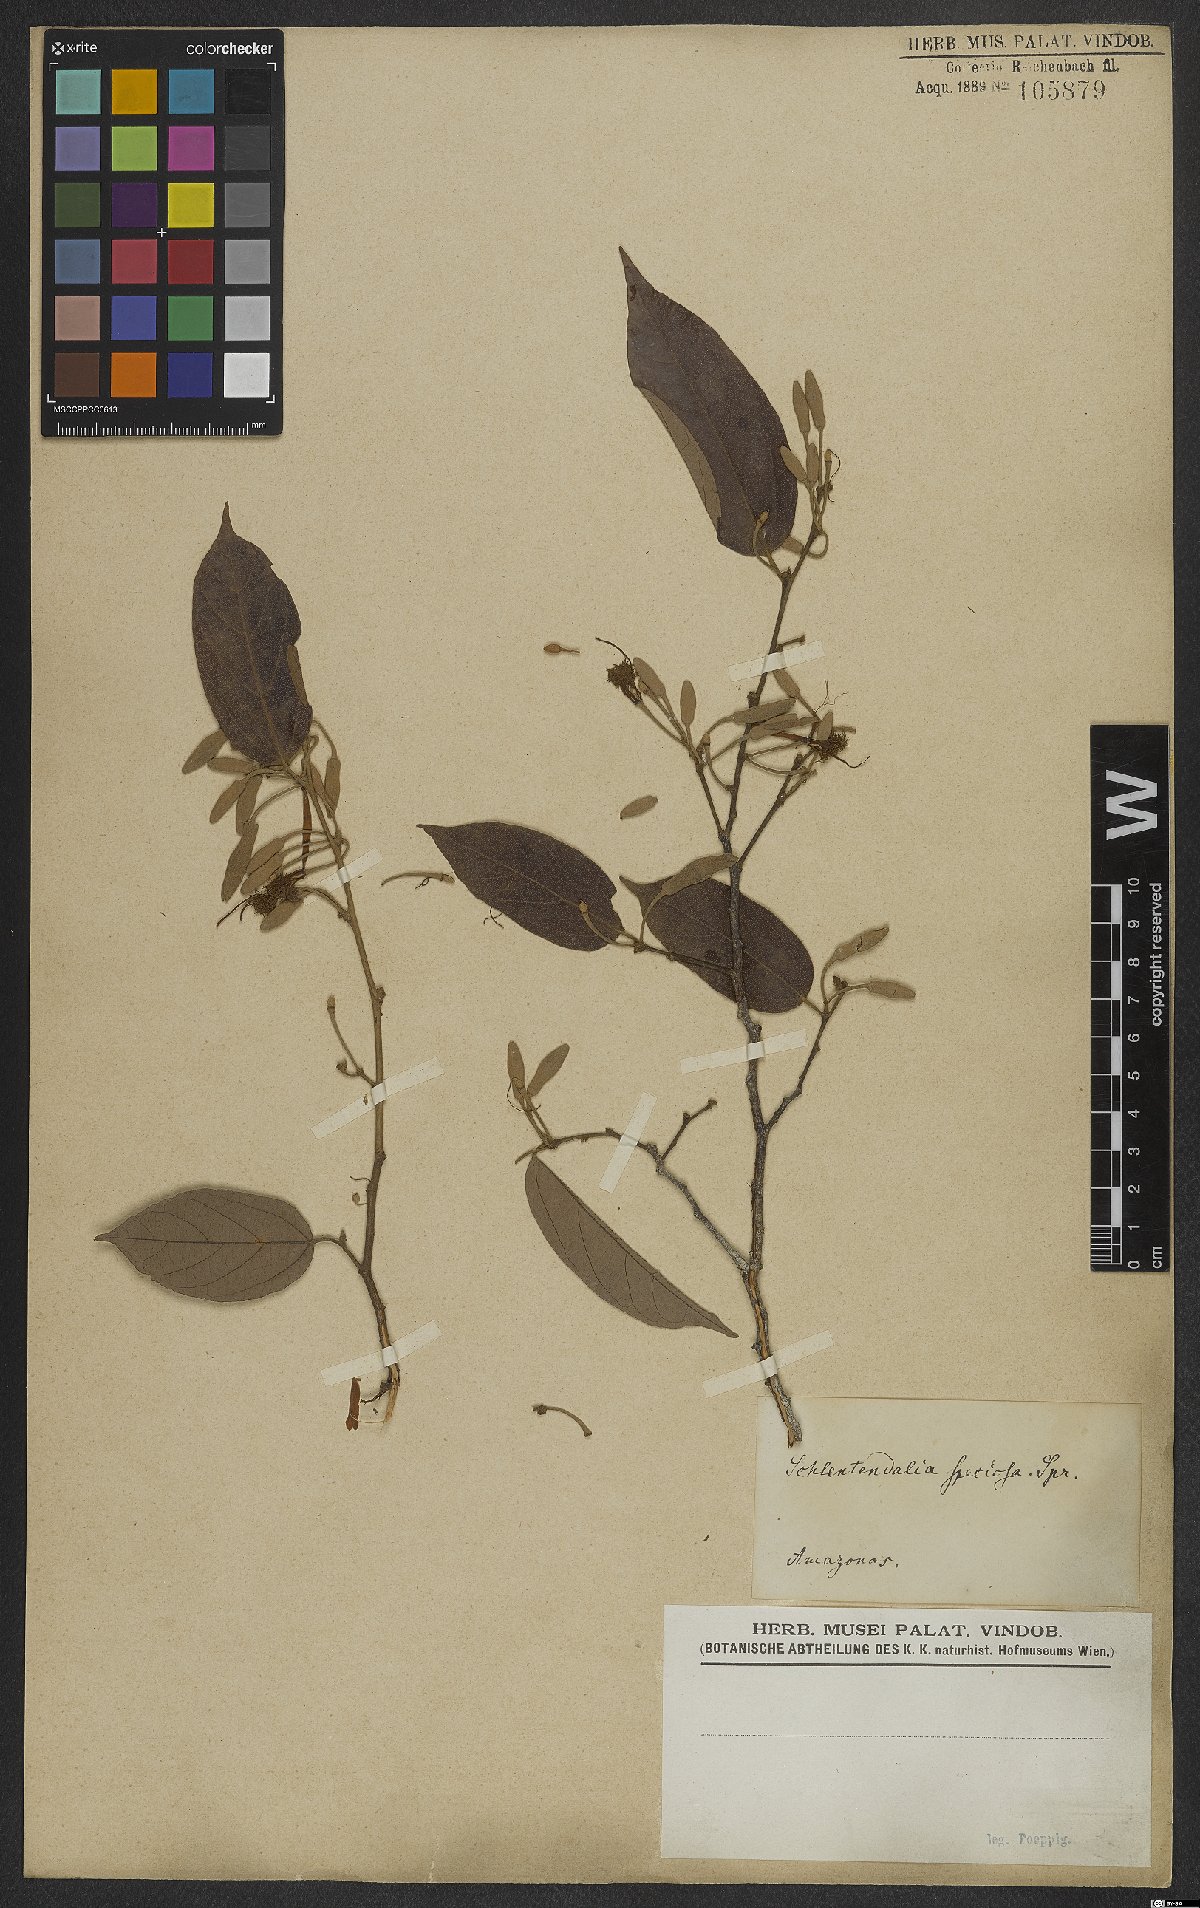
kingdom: Plantae
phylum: Tracheophyta
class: Magnoliopsida
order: Malvales
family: Malvaceae
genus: Mollia
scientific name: Mollia lepidota
